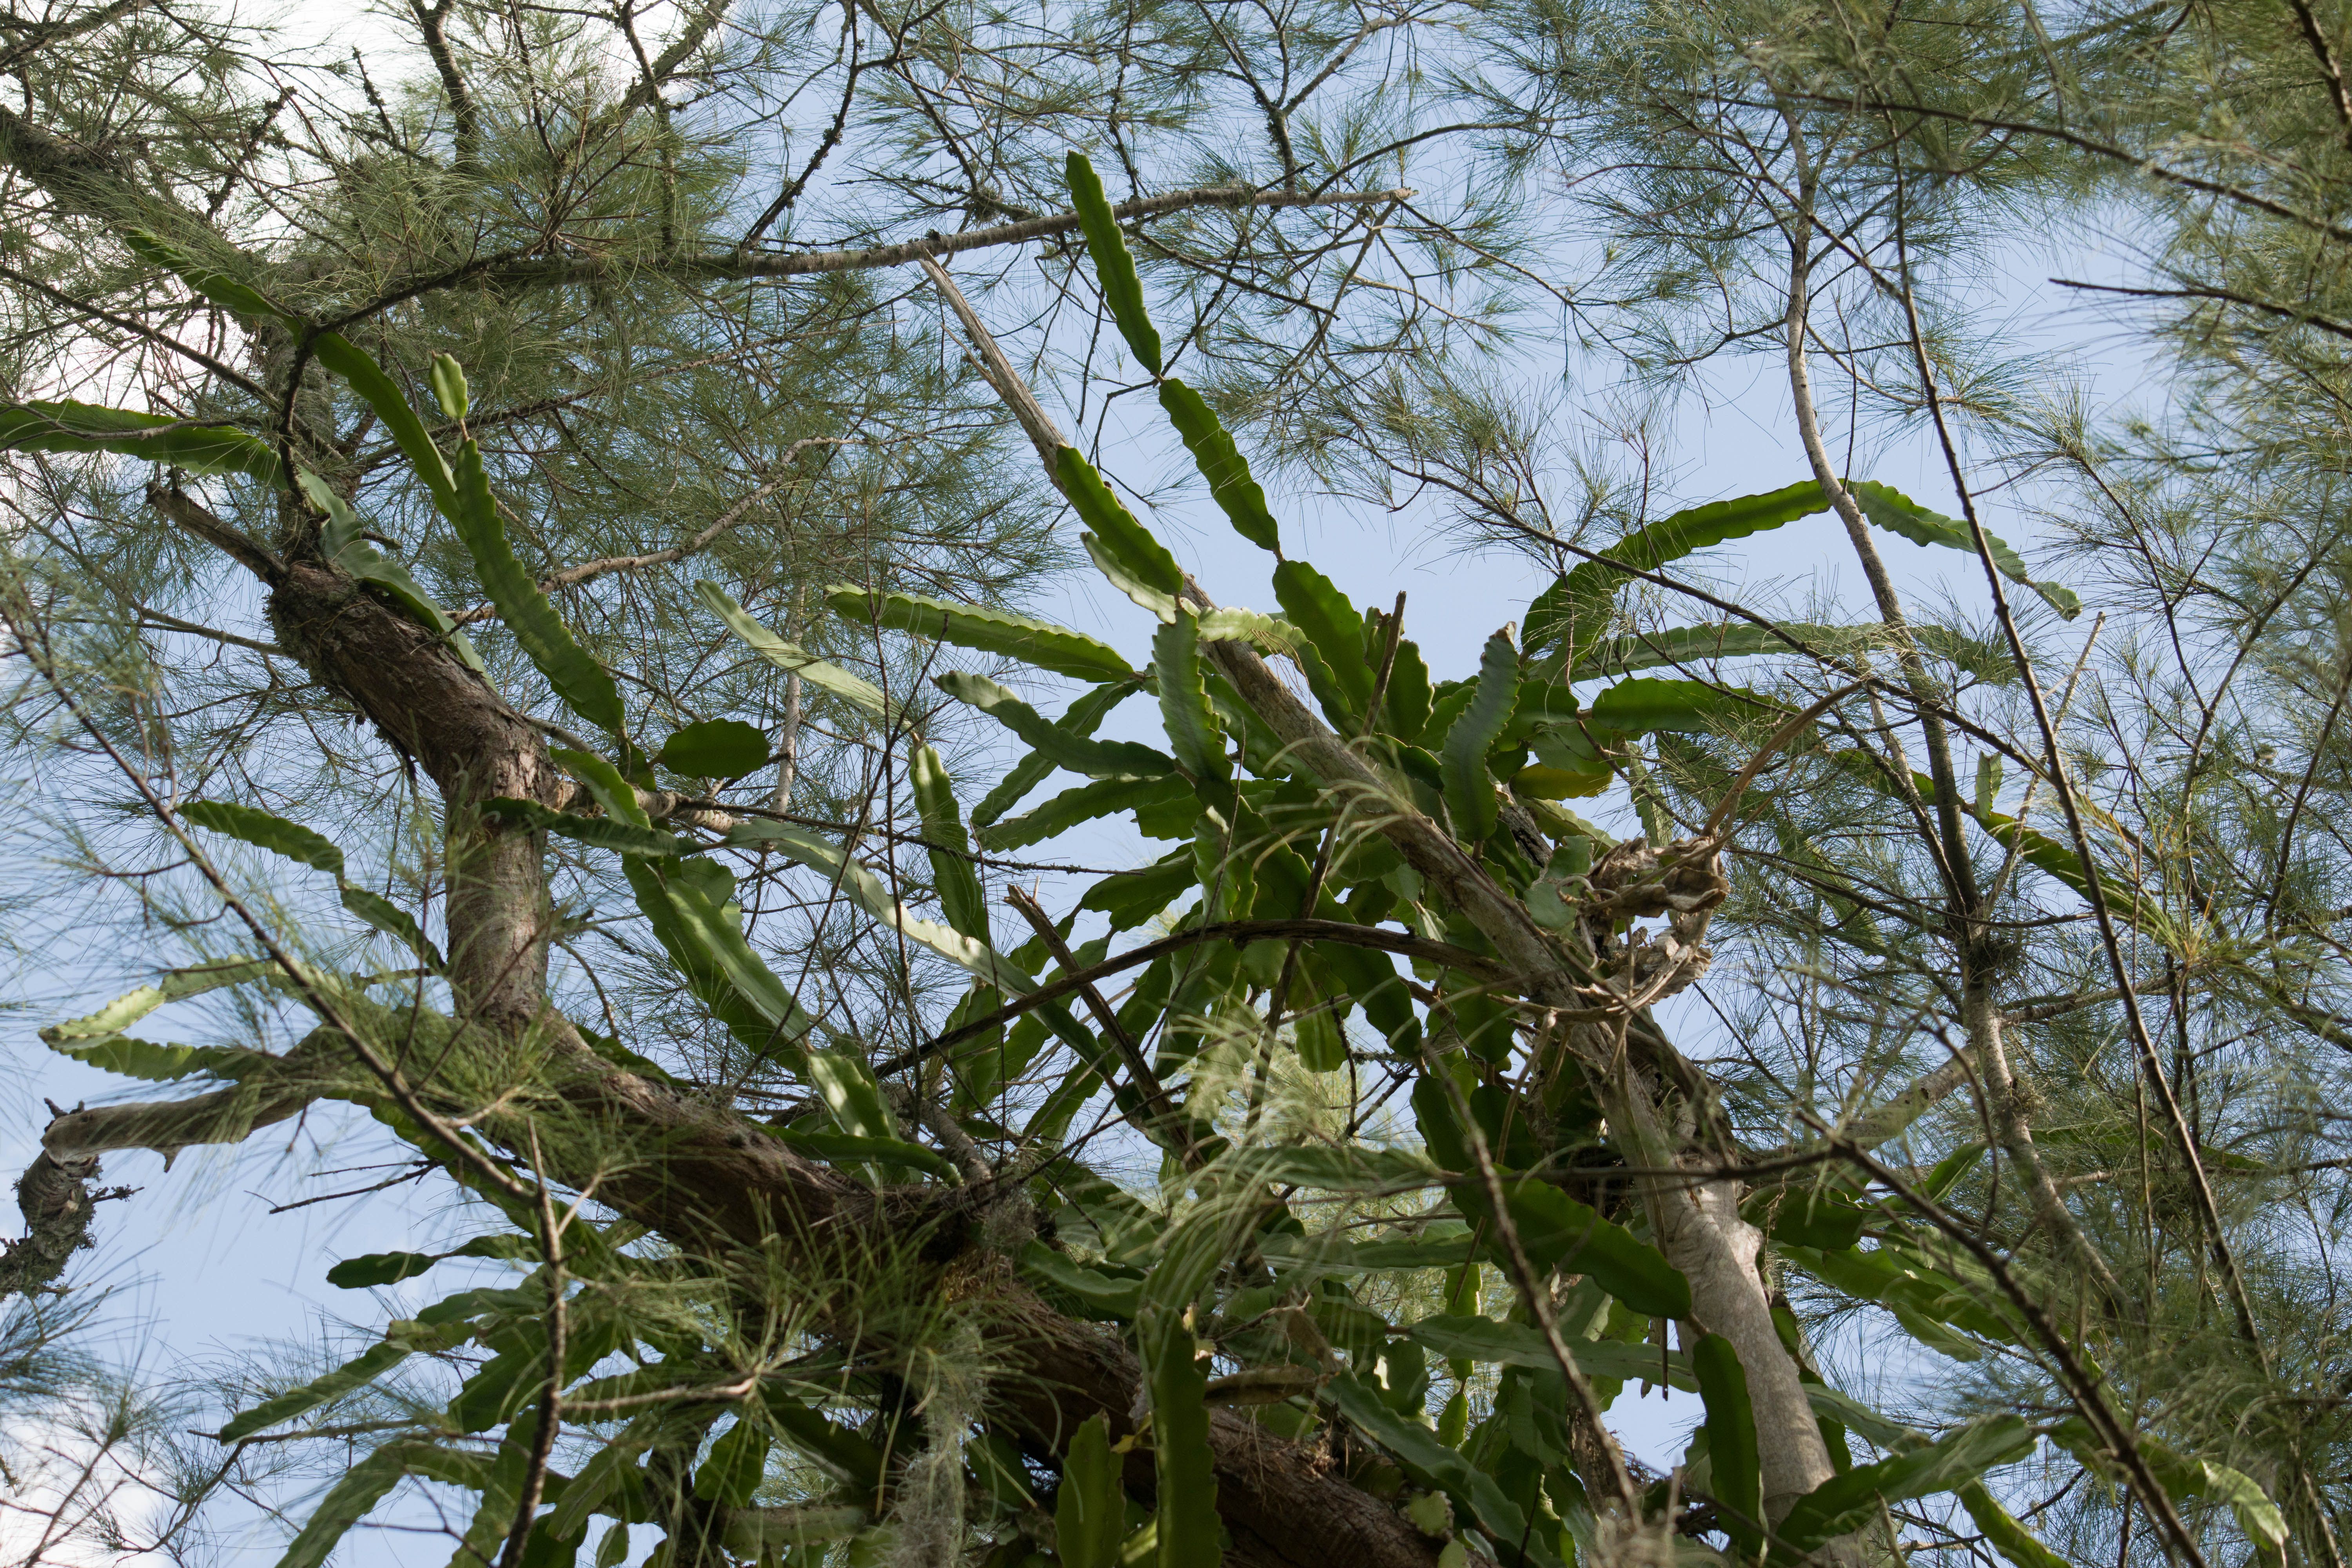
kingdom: Plantae
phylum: Tracheophyta
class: Magnoliopsida
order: Caryophyllales
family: Cactaceae
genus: Selenicereus
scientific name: Selenicereus undatus
